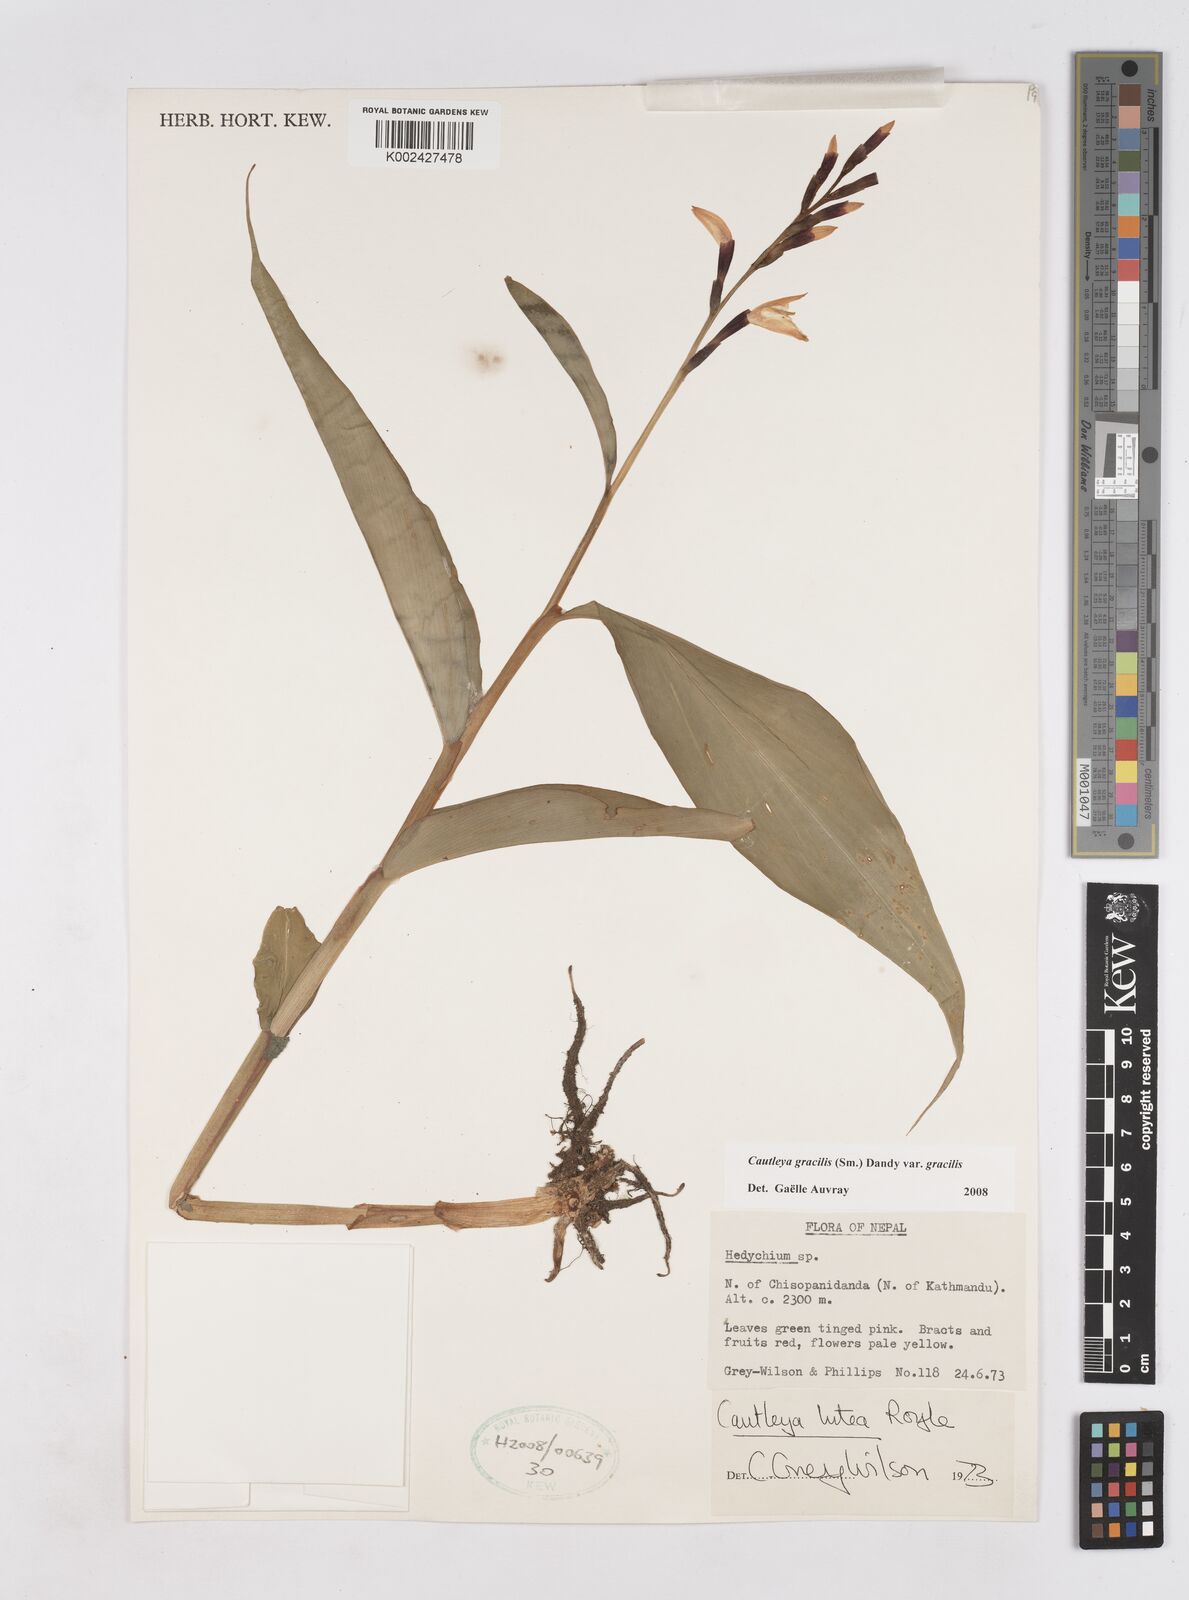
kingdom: Plantae
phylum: Tracheophyta
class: Liliopsida
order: Zingiberales
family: Zingiberaceae
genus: Cautleya
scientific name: Cautleya gracilis
